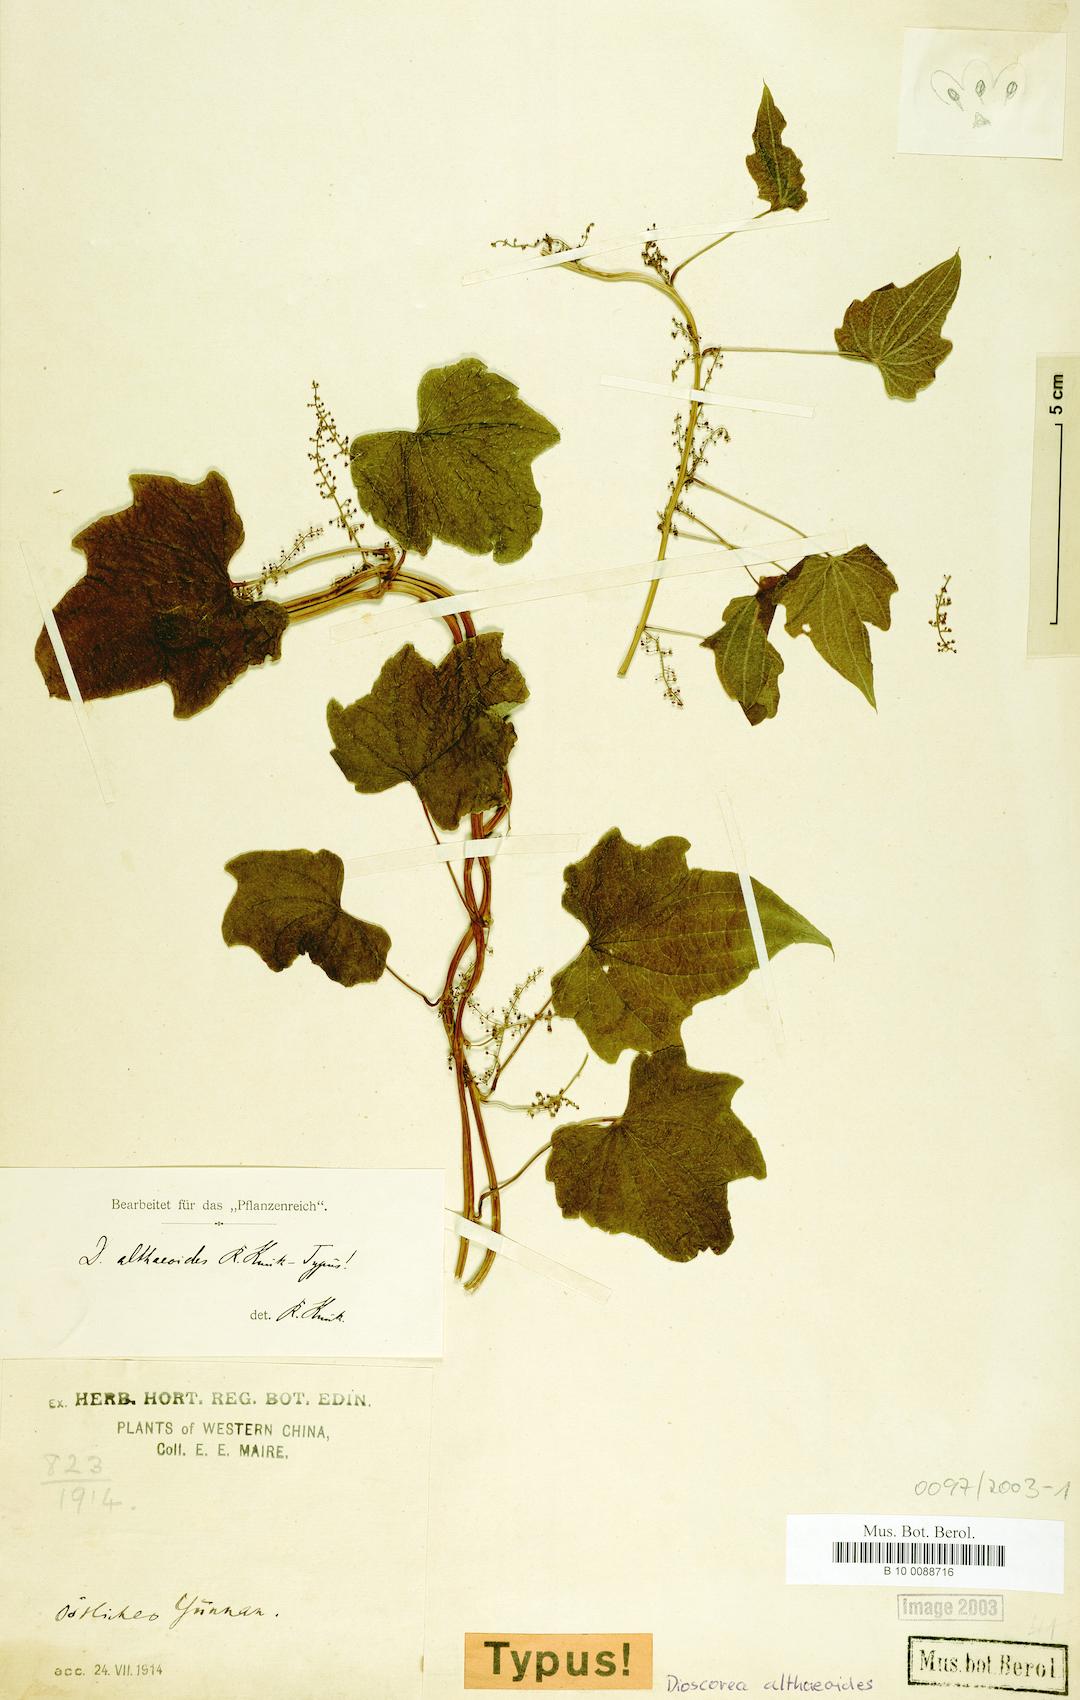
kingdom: Plantae
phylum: Tracheophyta
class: Liliopsida
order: Dioscoreales
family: Dioscoreaceae
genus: Dioscorea
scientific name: Dioscorea althaeoides
